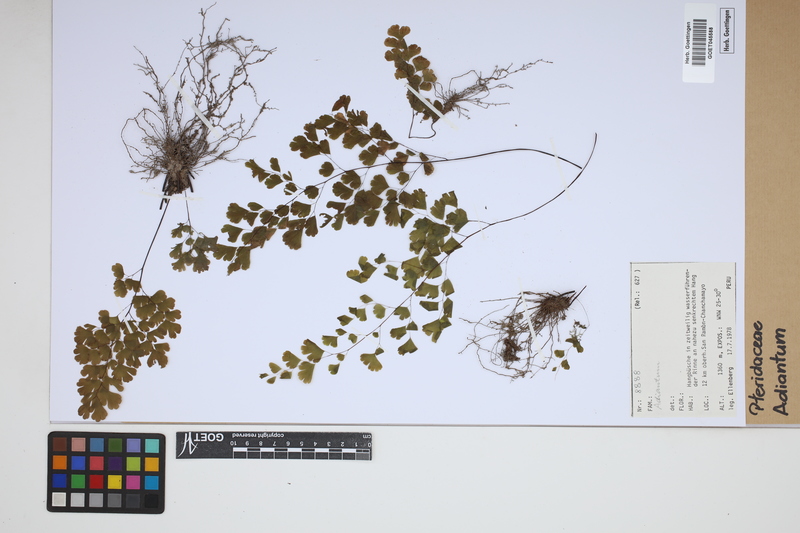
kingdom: Plantae
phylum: Tracheophyta
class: Polypodiopsida
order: Polypodiales
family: Pteridaceae
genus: Adiantum
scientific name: Adiantum
